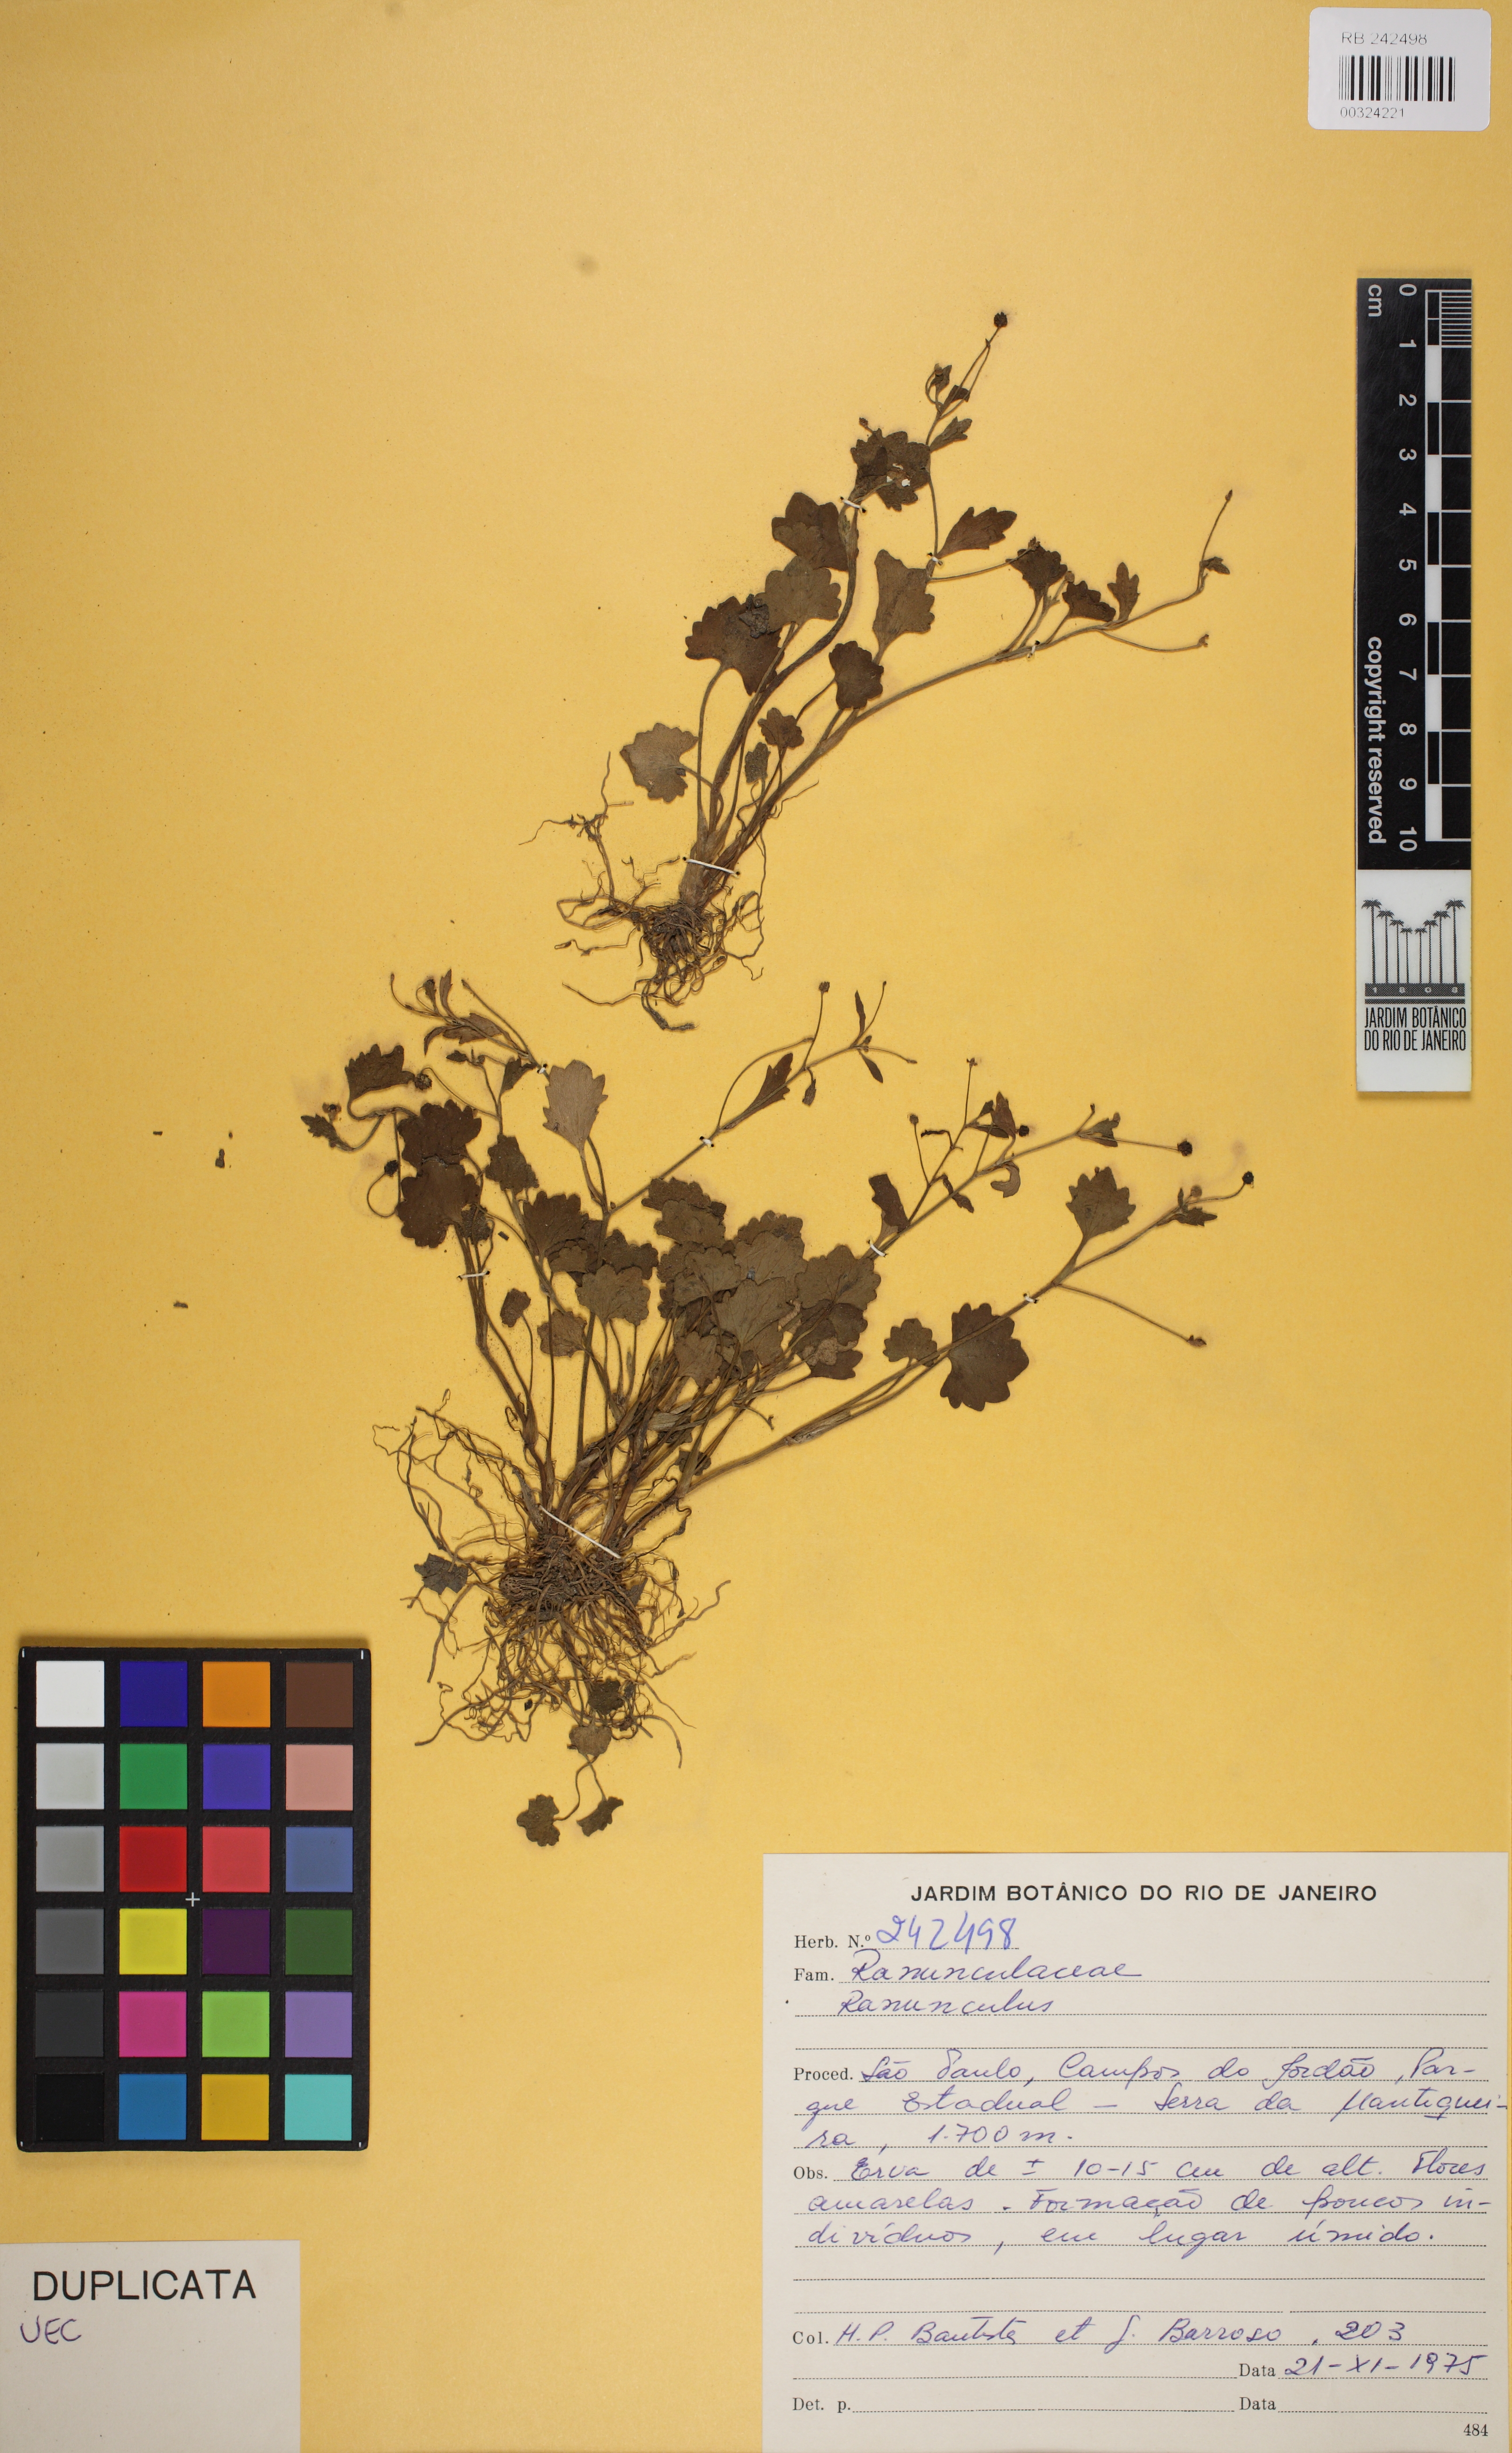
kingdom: Plantae
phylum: Tracheophyta
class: Magnoliopsida
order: Ranunculales
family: Ranunculaceae
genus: Ranunculus
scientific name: Ranunculus
